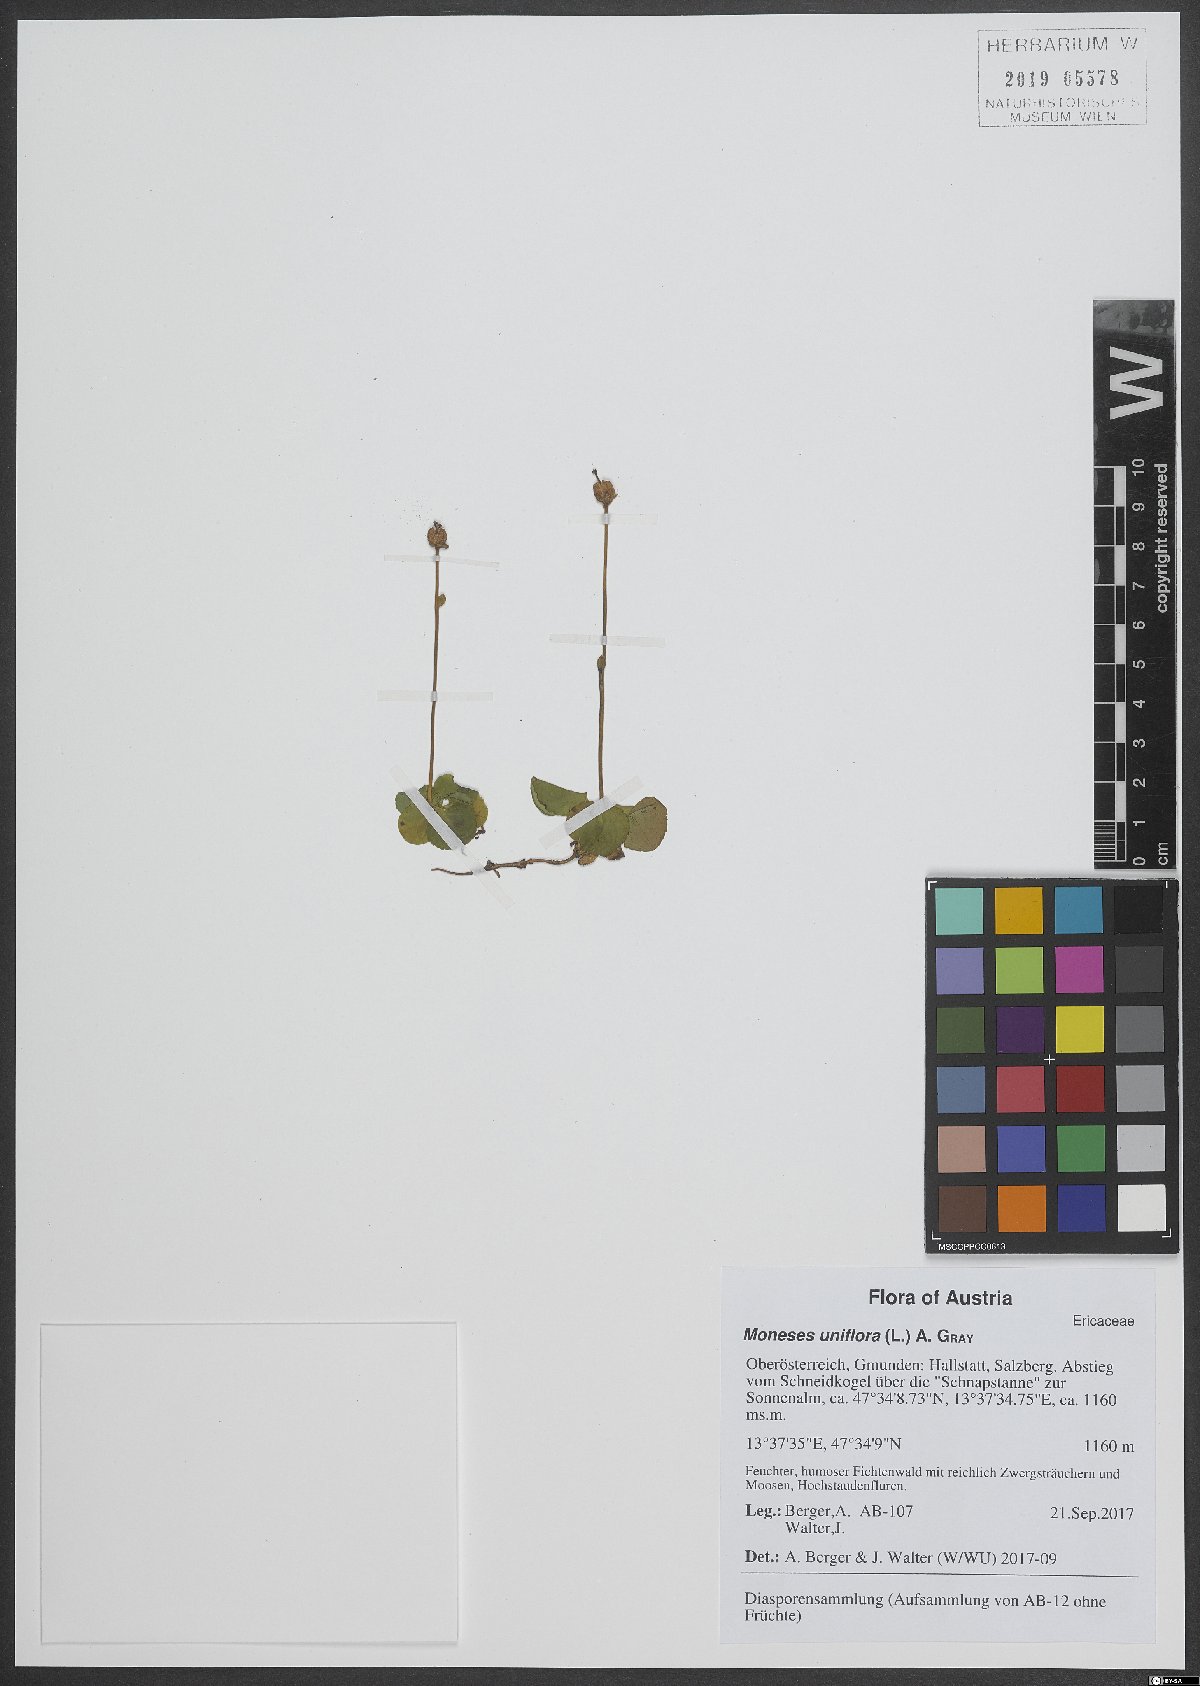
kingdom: Plantae
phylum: Tracheophyta
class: Magnoliopsida
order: Ericales
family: Ericaceae
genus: Moneses
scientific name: Moneses uniflora
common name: One-flowered wintergreen
